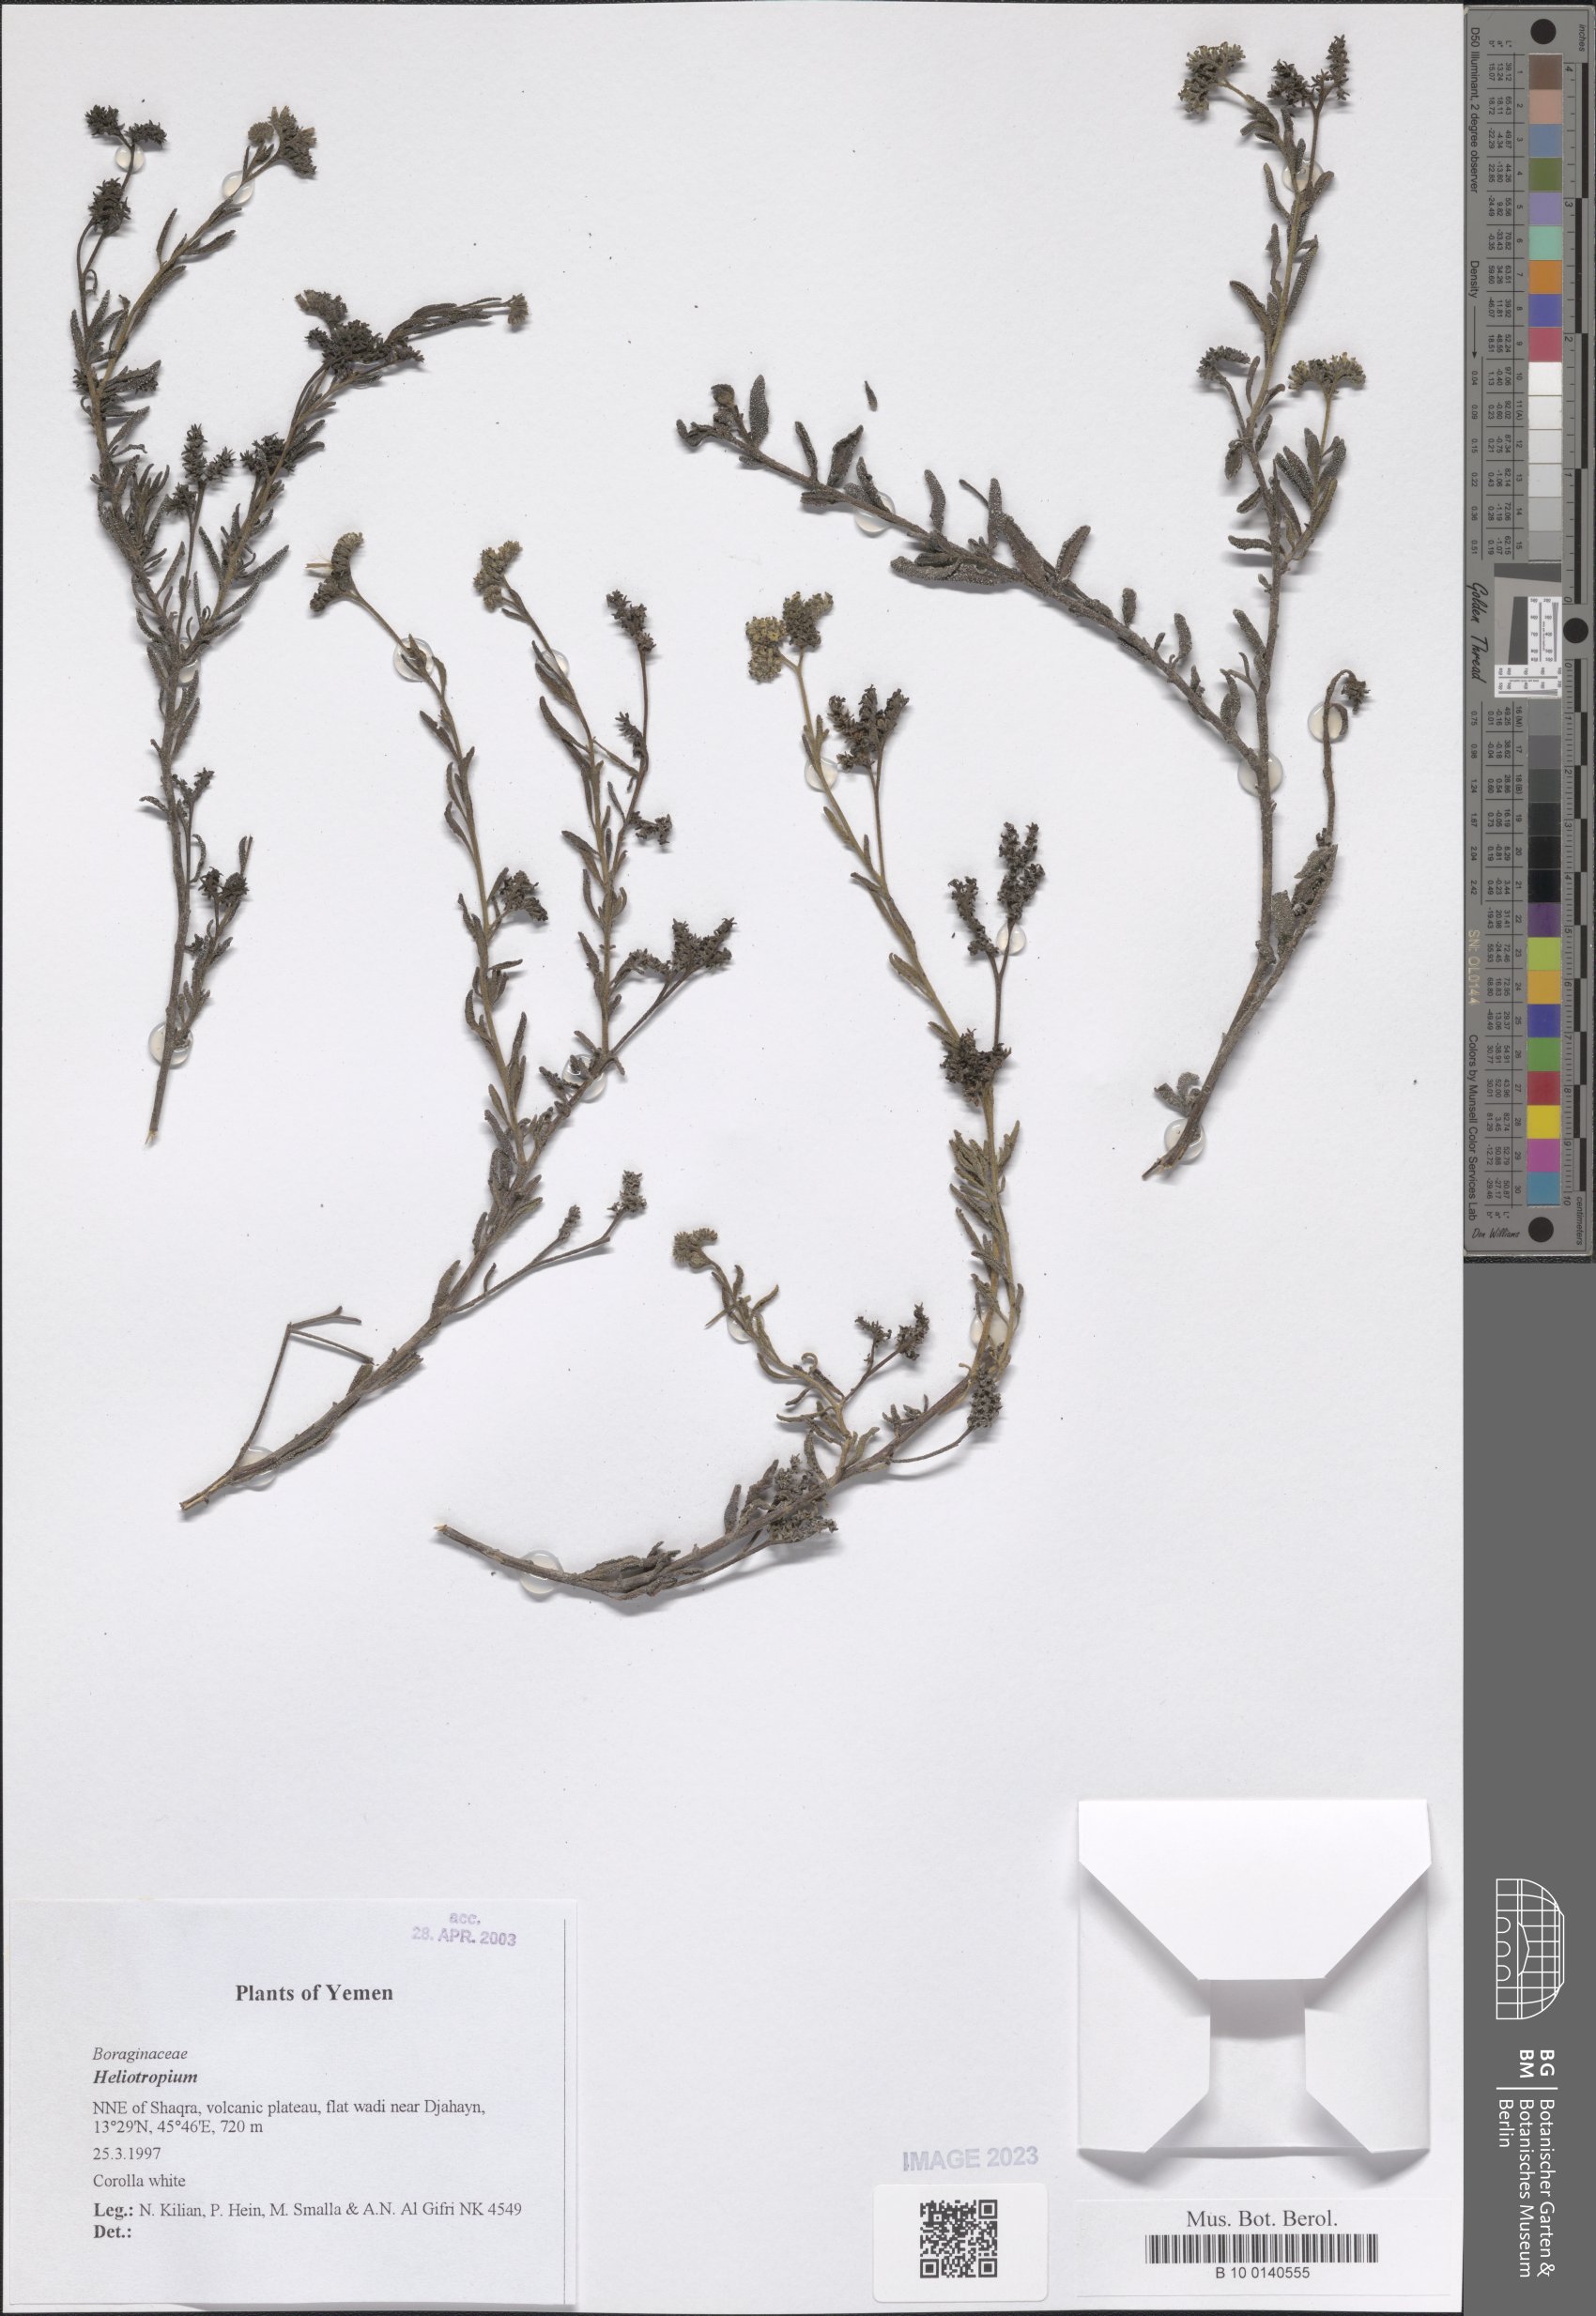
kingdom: Plantae
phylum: Tracheophyta
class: Magnoliopsida
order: Boraginales
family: Heliotropiaceae
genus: Heliotropium
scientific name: Heliotropium
